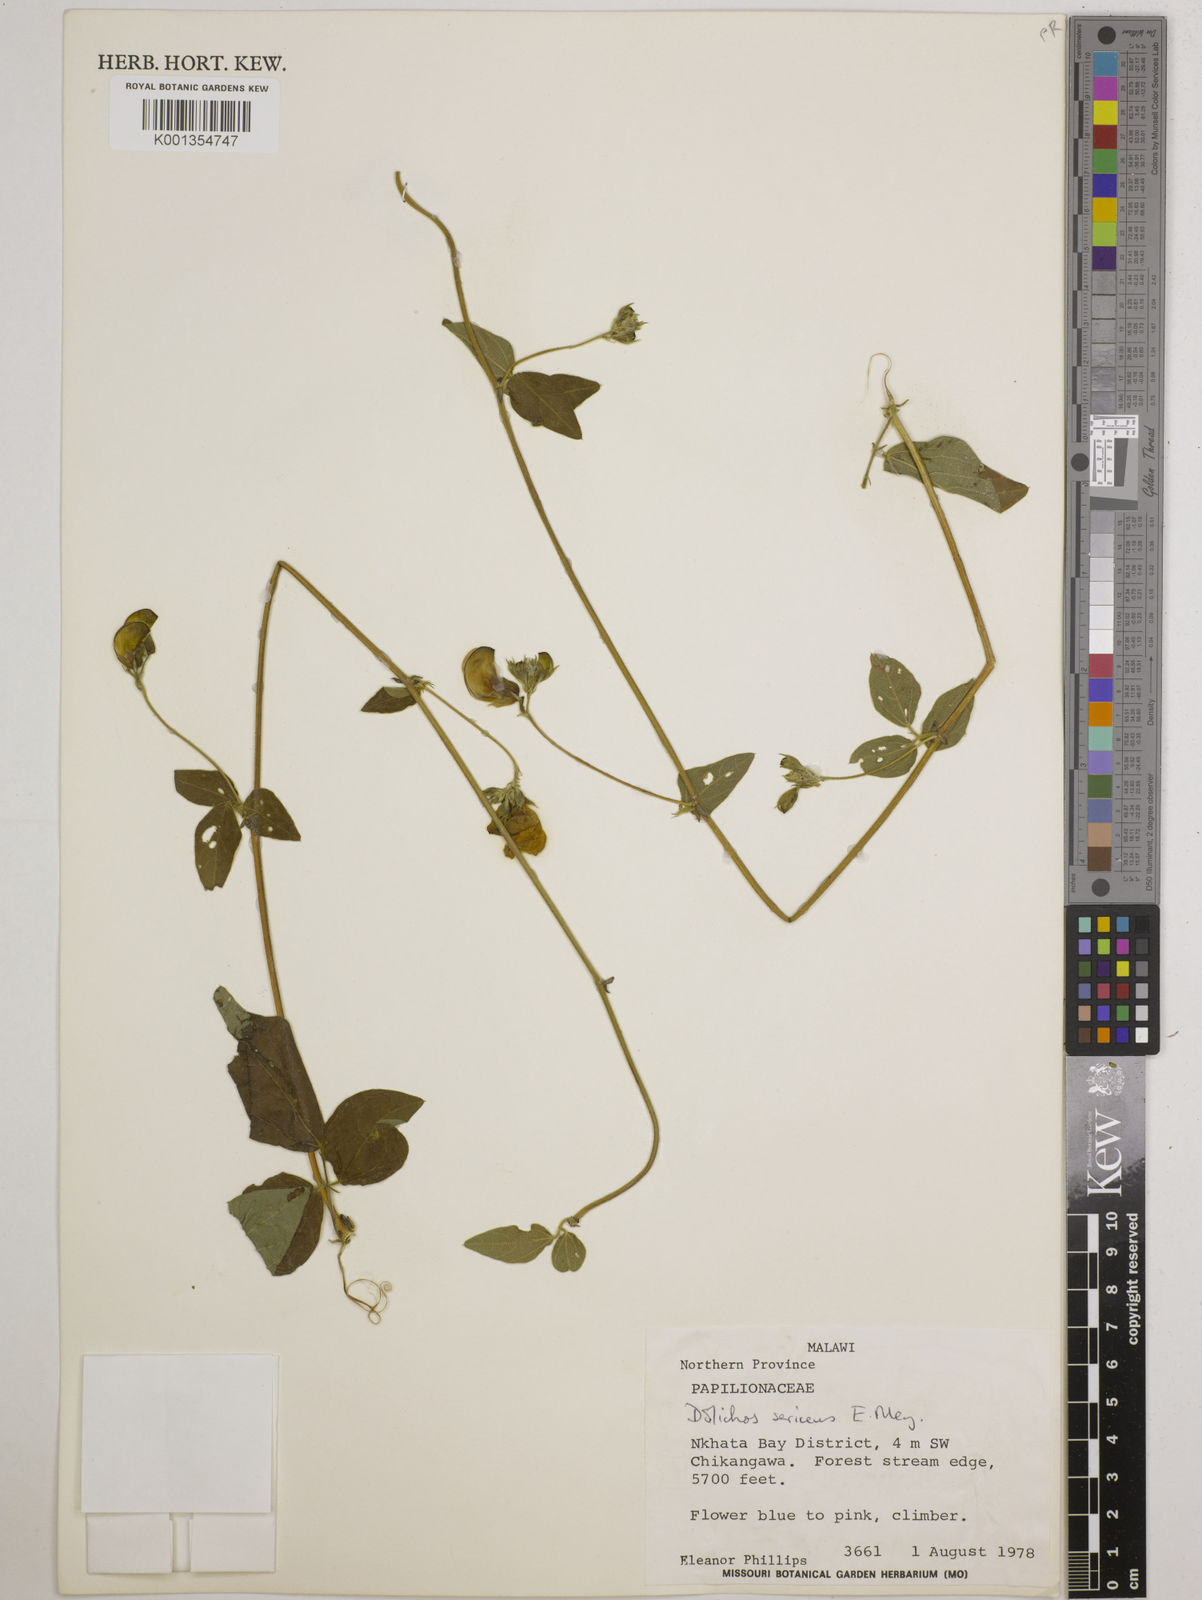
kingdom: Plantae
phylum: Tracheophyta
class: Magnoliopsida
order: Fabales
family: Fabaceae
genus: Dolichos
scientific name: Dolichos
